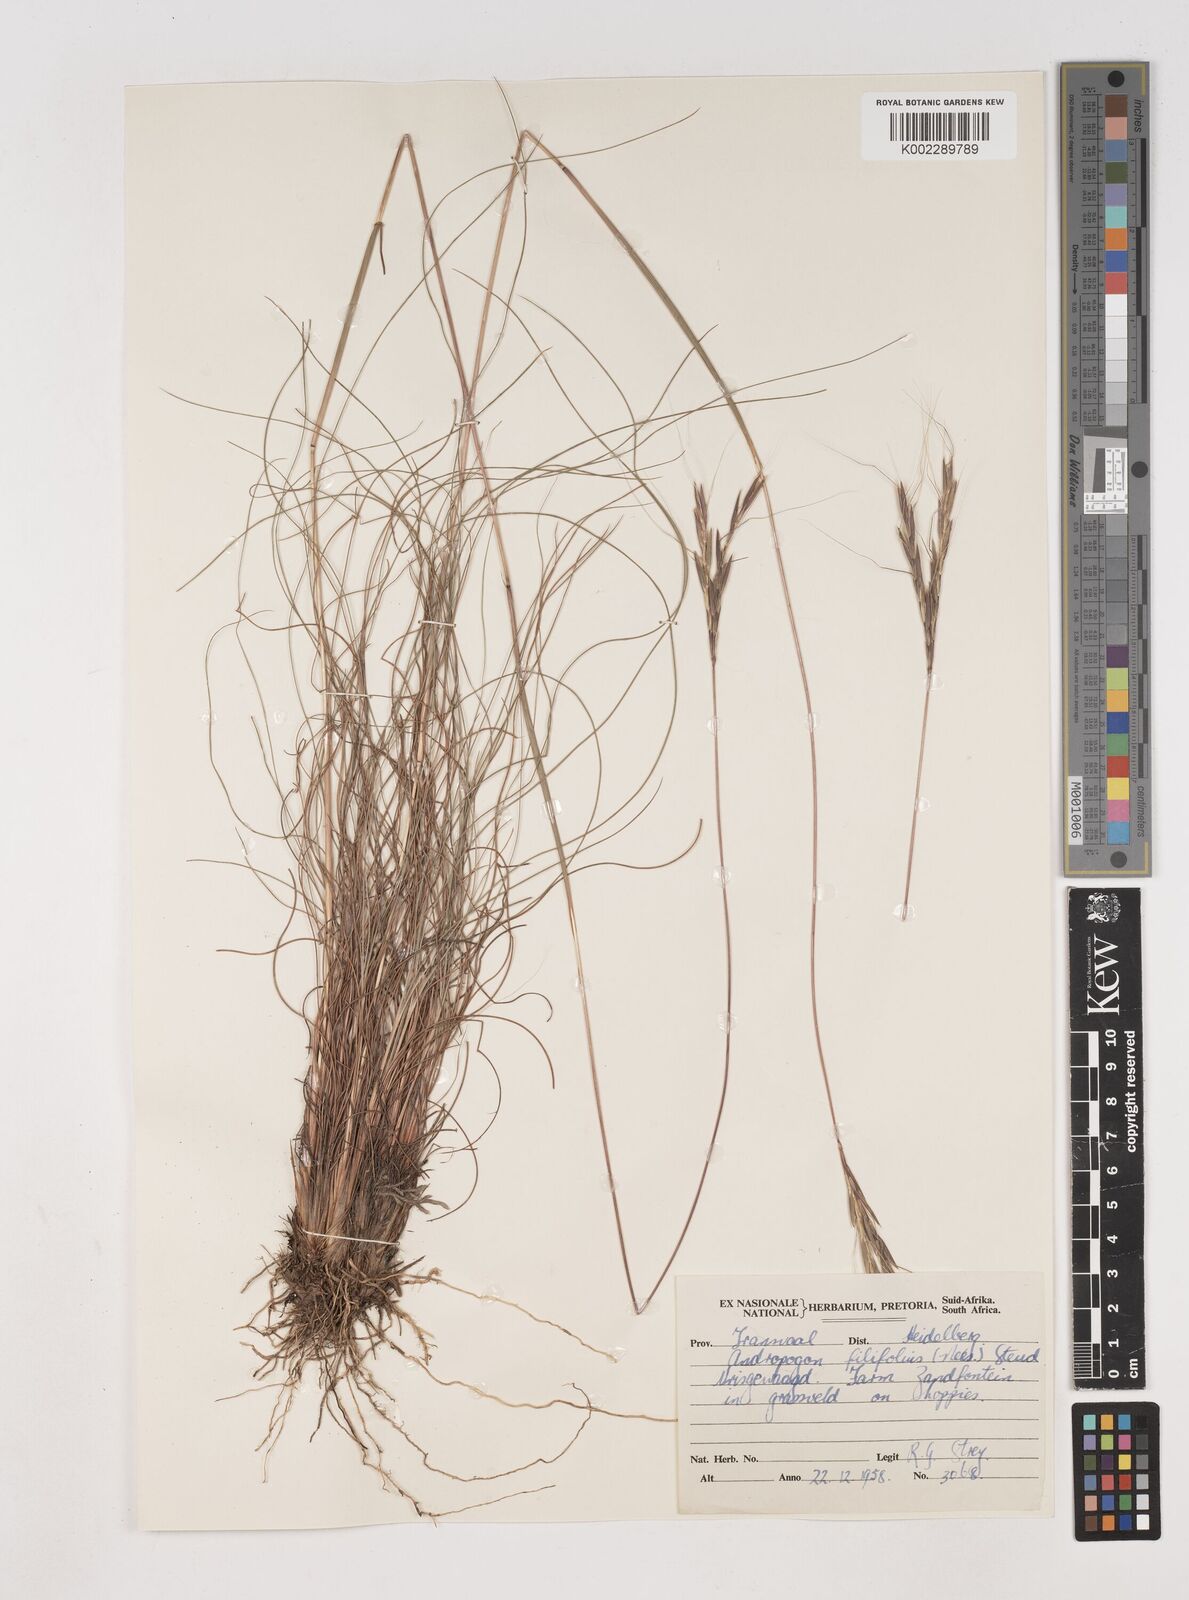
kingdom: Plantae
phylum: Tracheophyta
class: Liliopsida
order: Poales
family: Poaceae
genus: Diheteropogon
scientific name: Diheteropogon filifolius
